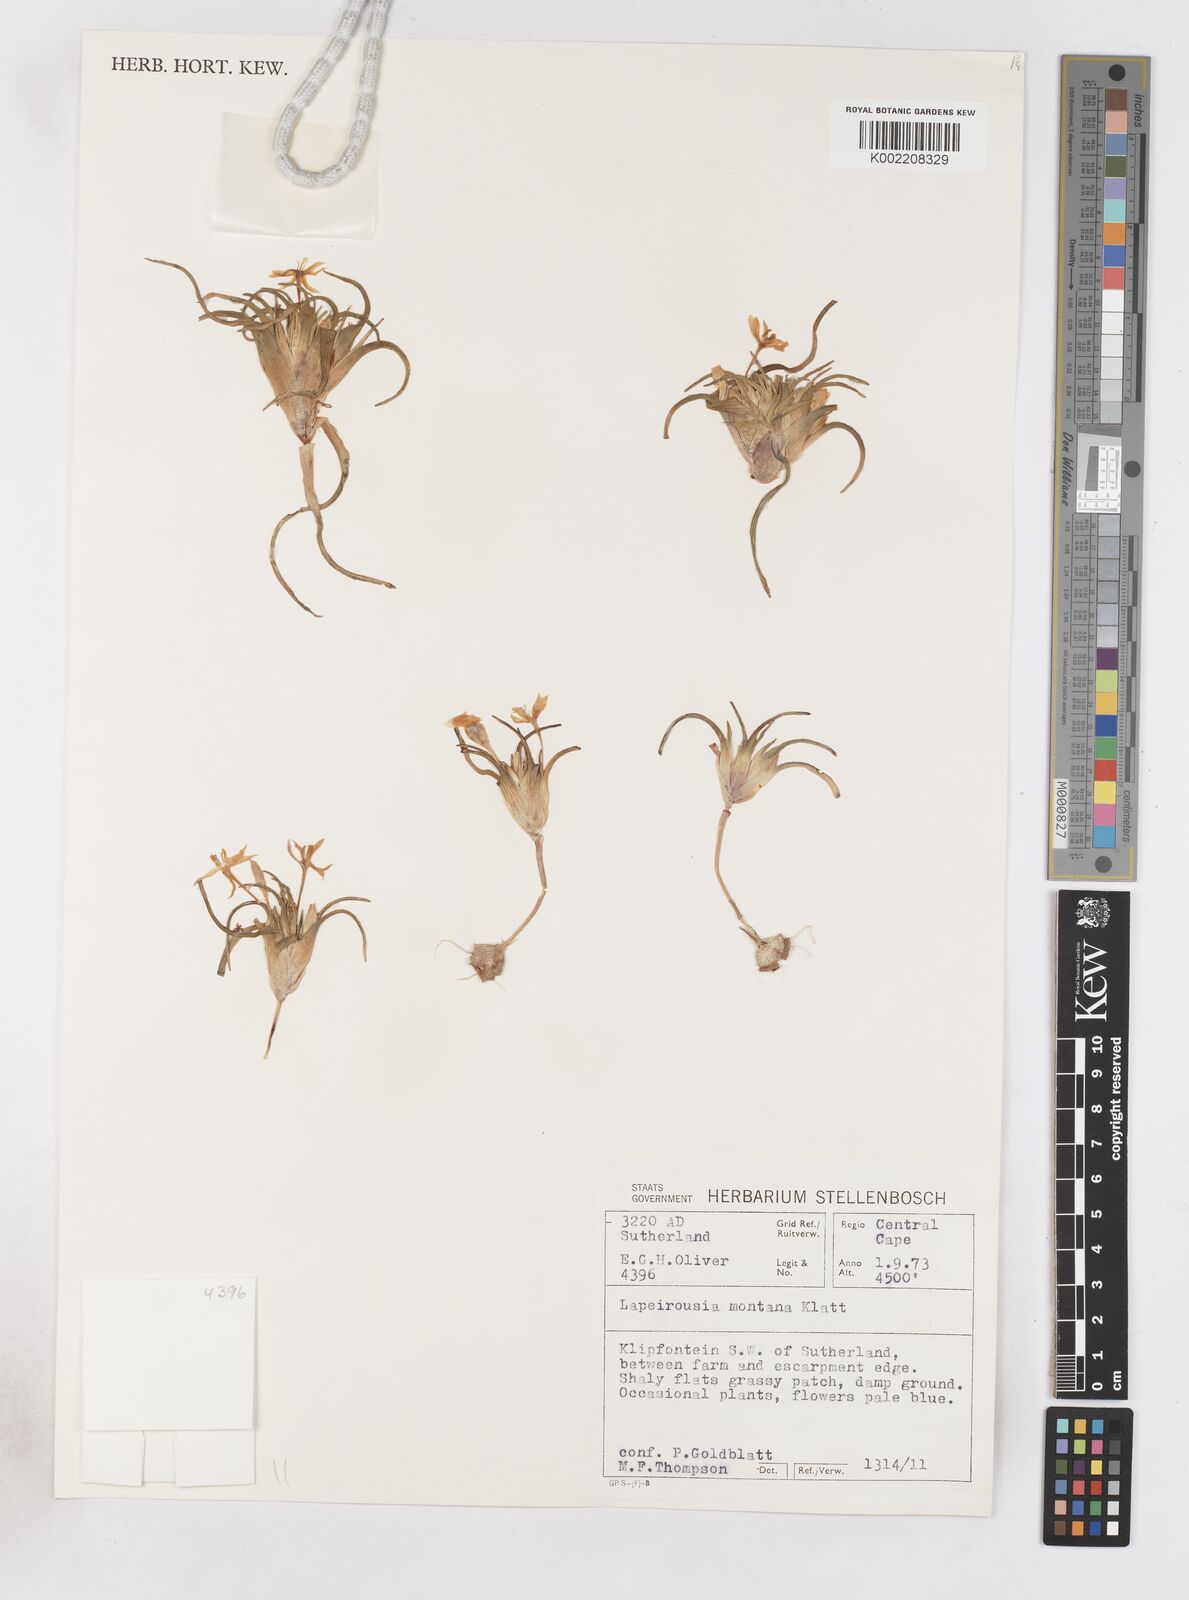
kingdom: Plantae
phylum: Tracheophyta
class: Liliopsida
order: Asparagales
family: Iridaceae
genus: Lapeirousia
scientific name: Lapeirousia montana
